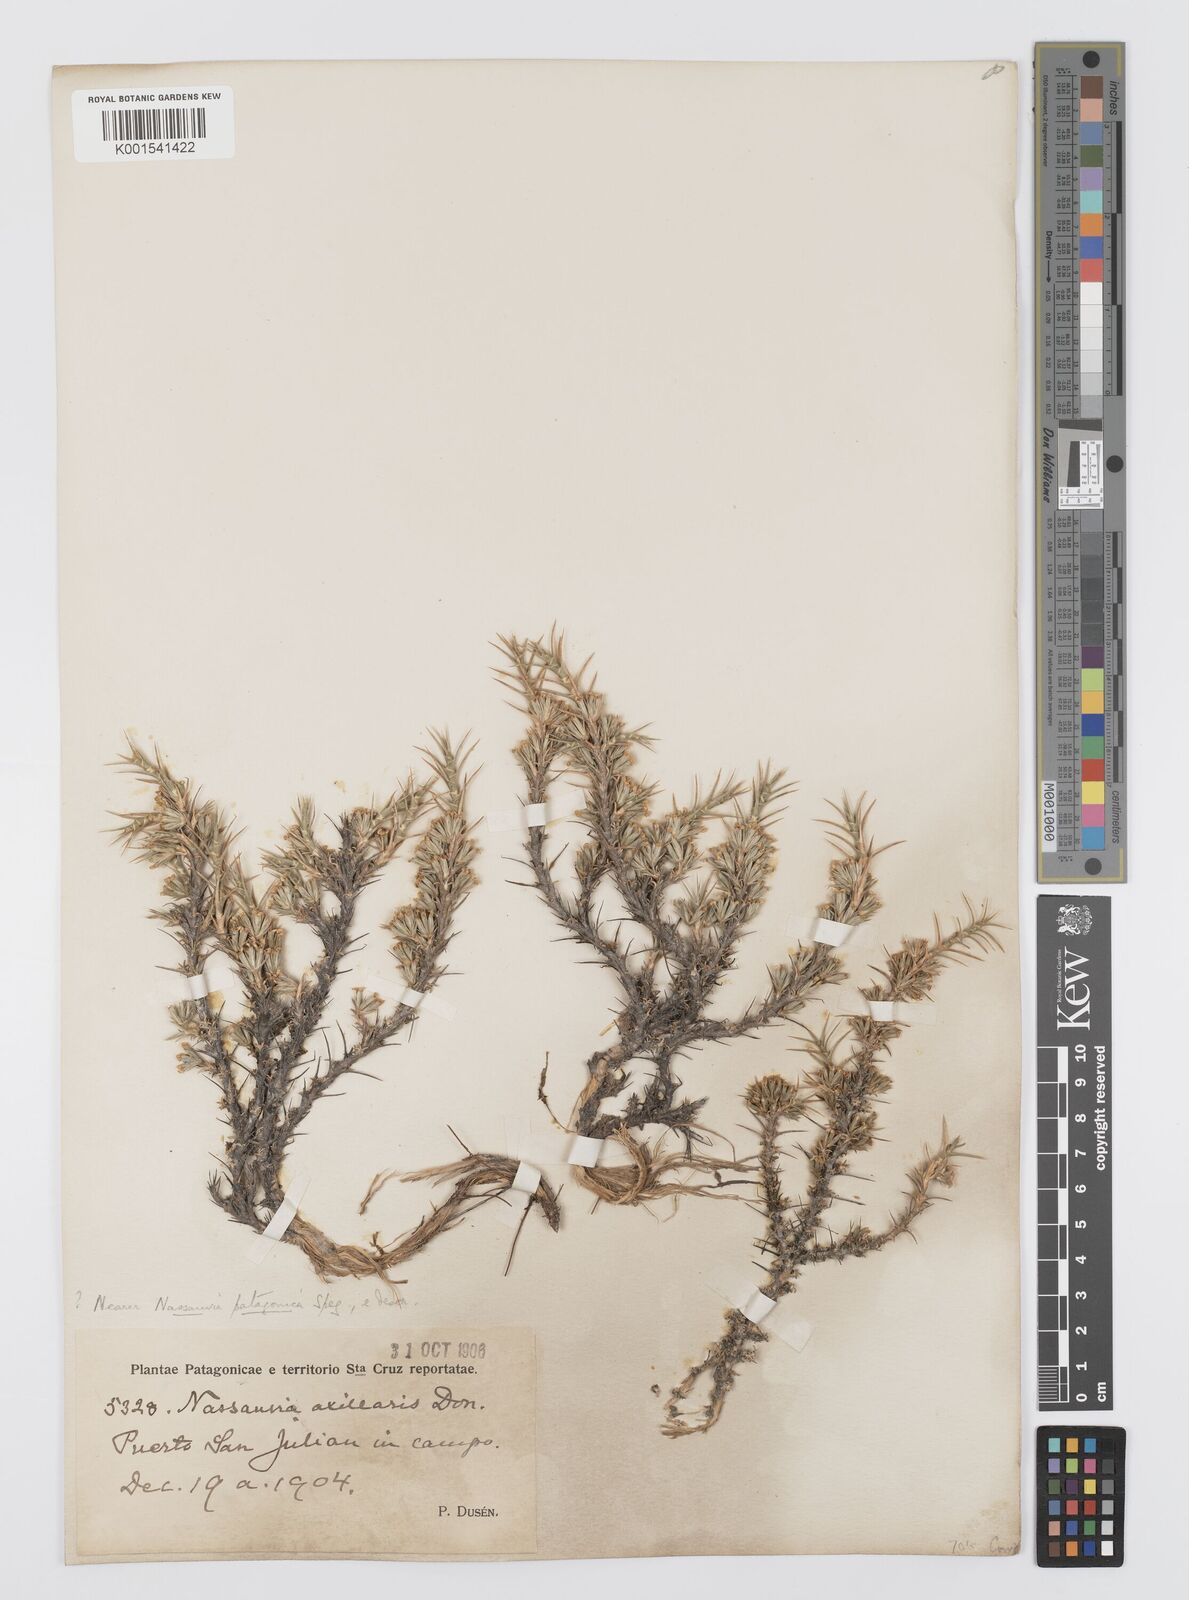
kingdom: Plantae
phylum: Tracheophyta
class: Magnoliopsida
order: Asterales
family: Asteraceae
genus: Nassauvia
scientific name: Nassauvia ulicina
